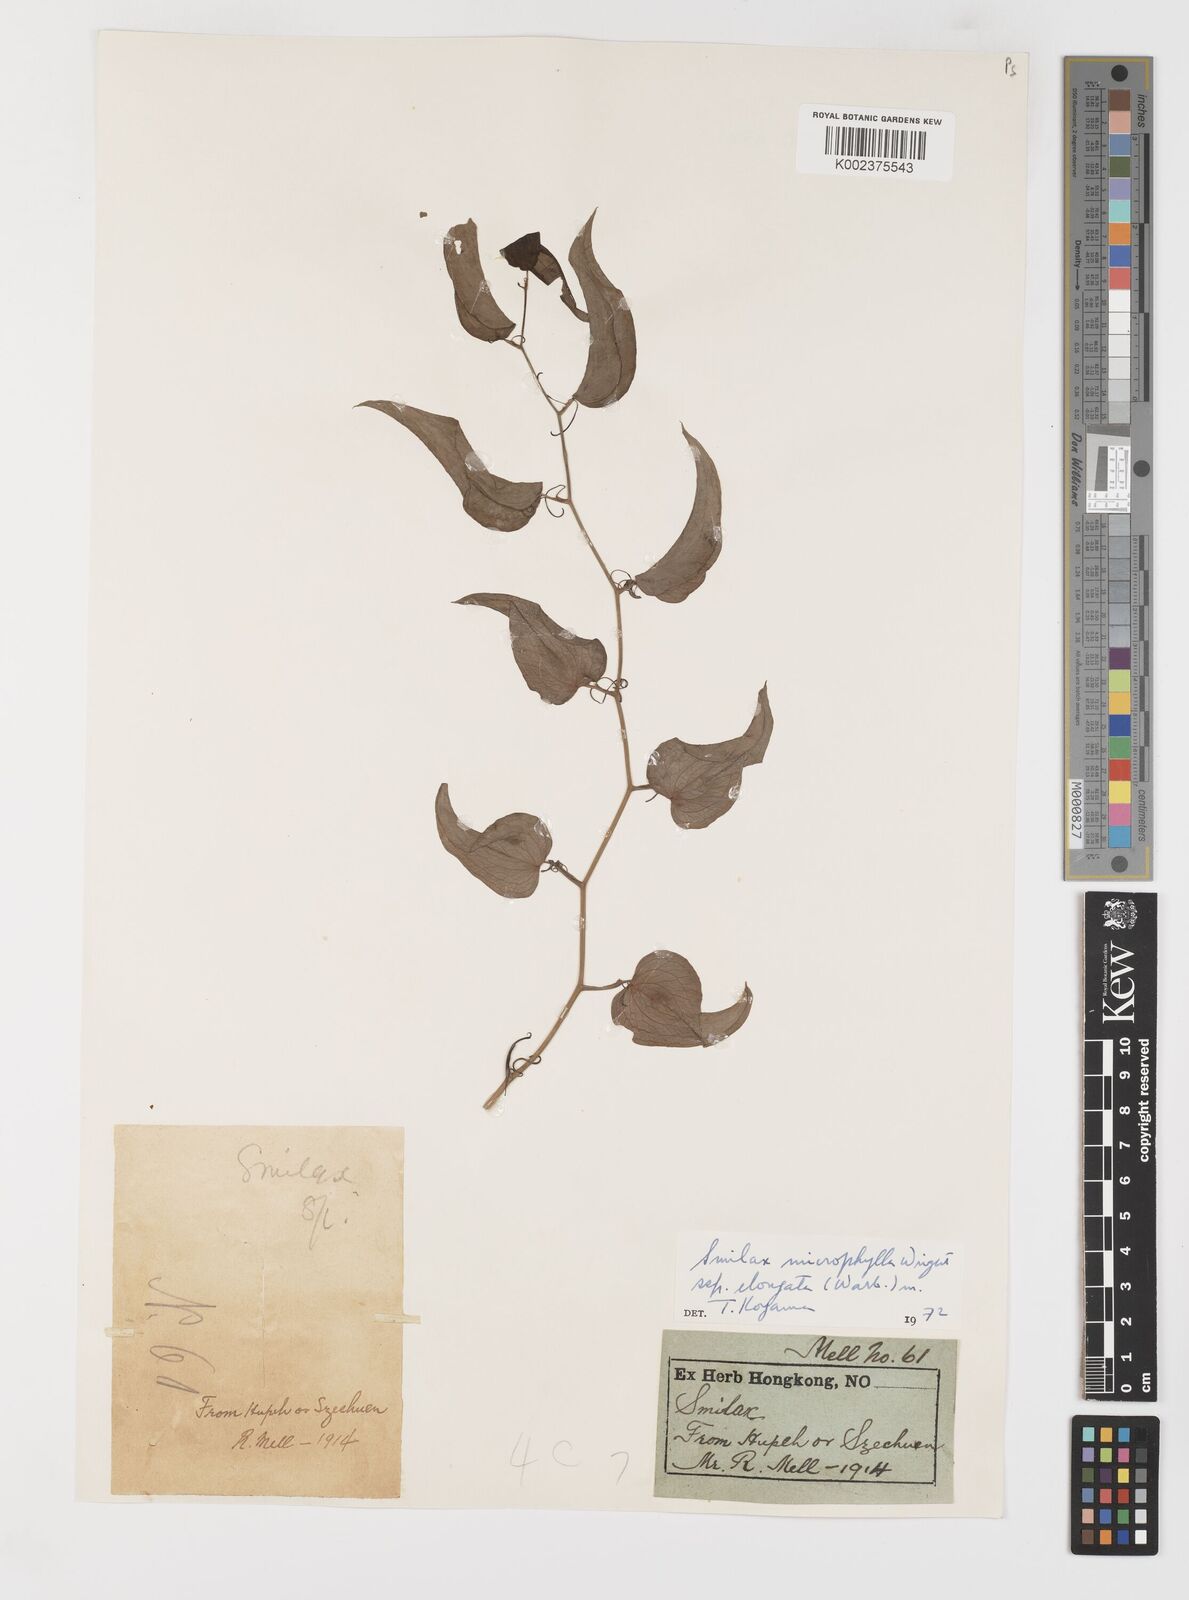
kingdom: Plantae
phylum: Tracheophyta
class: Liliopsida
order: Liliales
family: Smilacaceae
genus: Smilax
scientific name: Smilax lanceifolia
